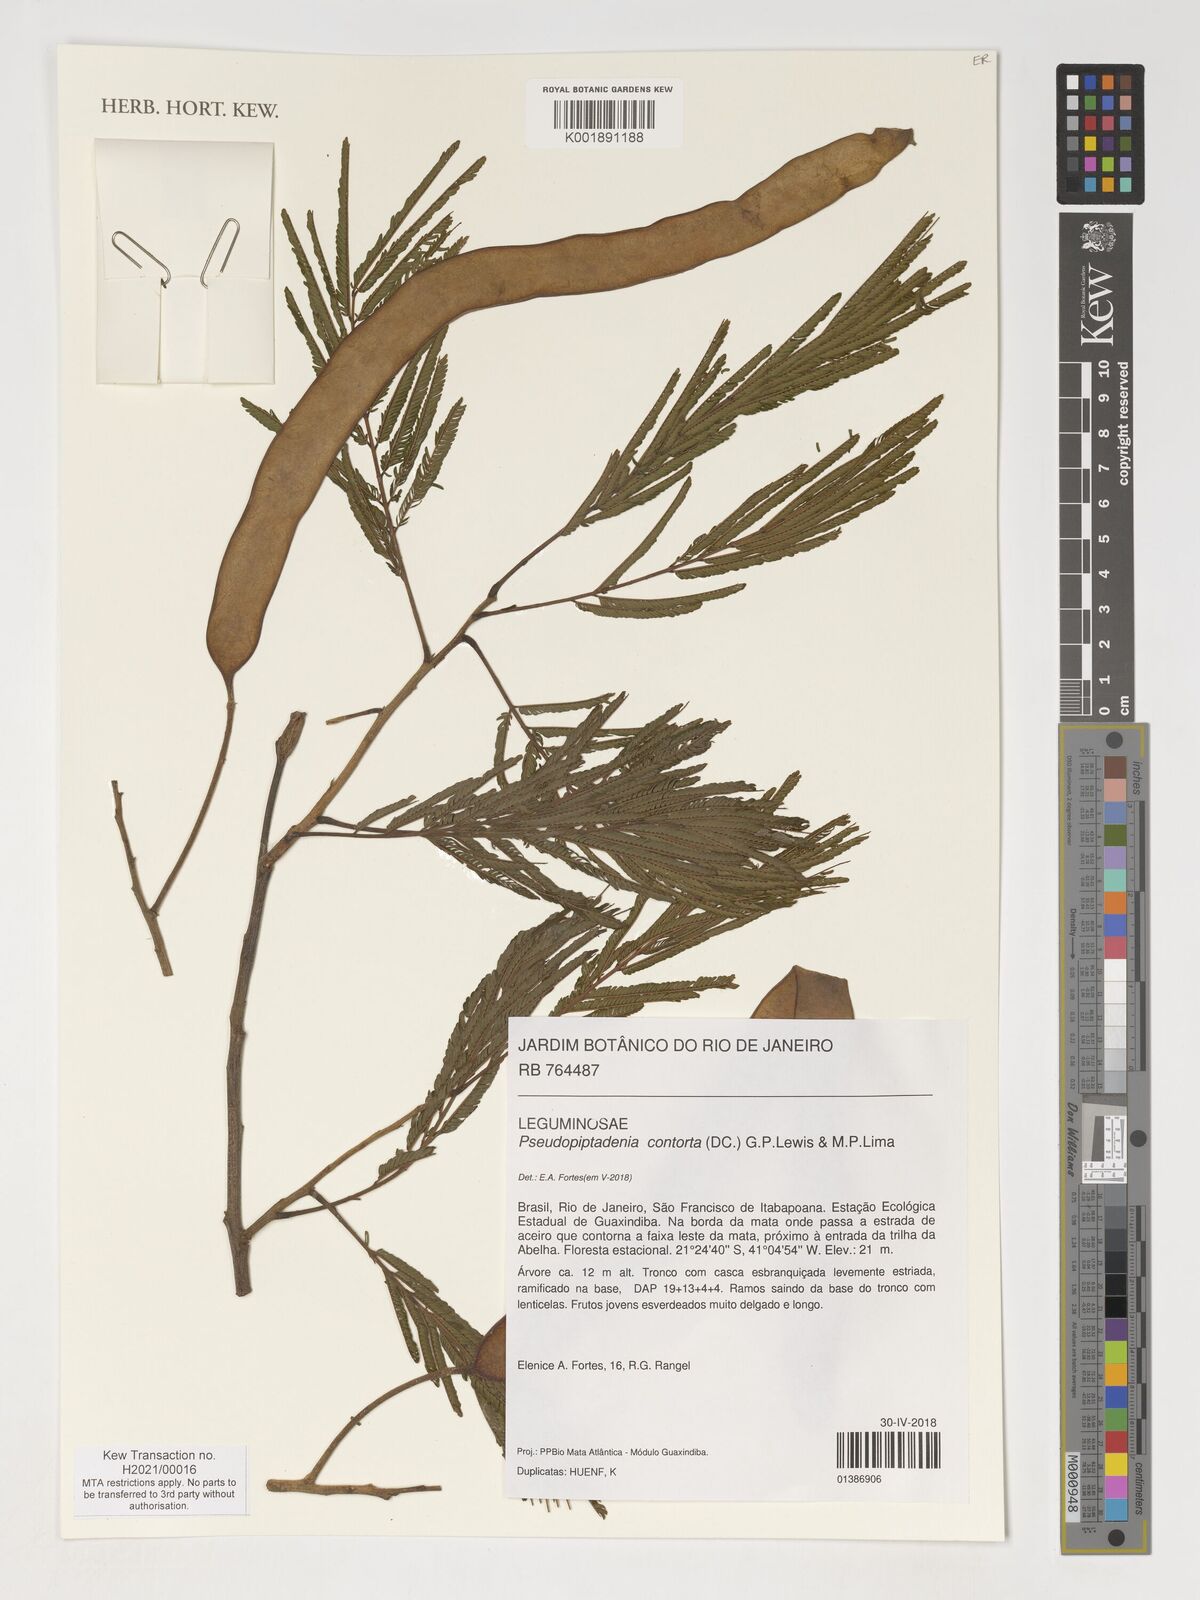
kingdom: Plantae
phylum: Tracheophyta
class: Magnoliopsida
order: Fabales
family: Fabaceae
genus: Pseudopiptadenia
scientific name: Pseudopiptadenia contorta
